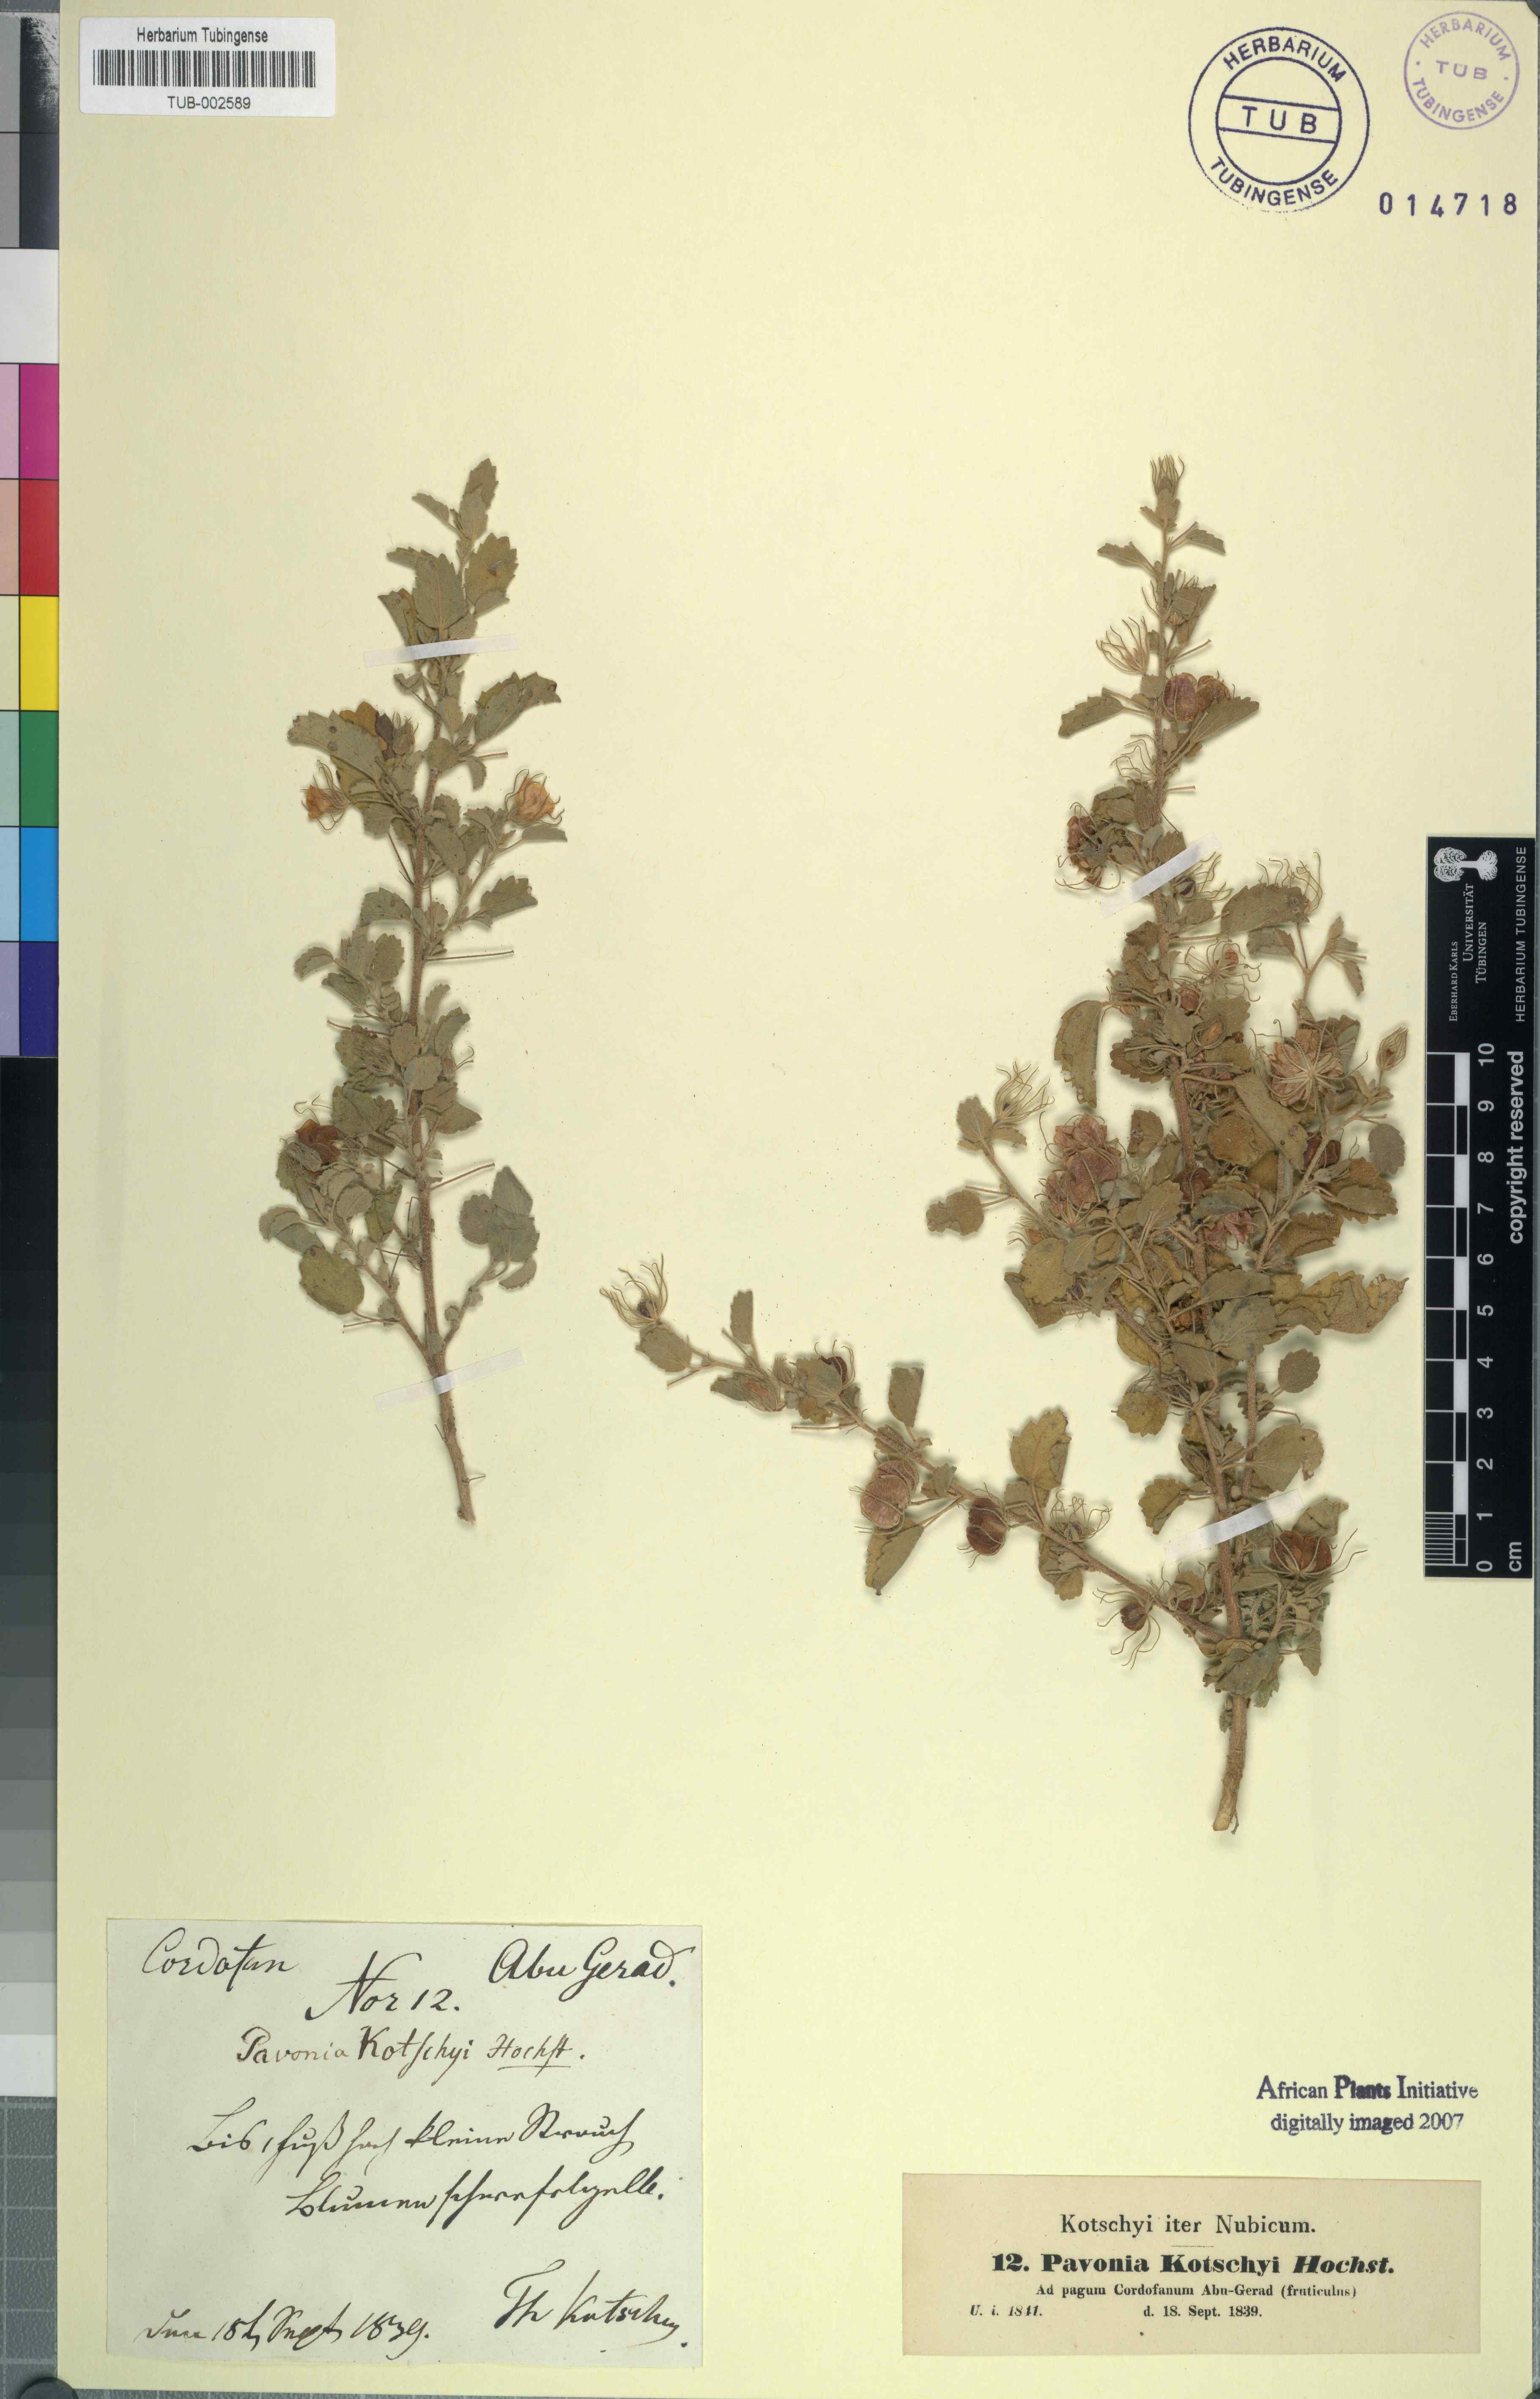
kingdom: Plantae
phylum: Tracheophyta
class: Magnoliopsida
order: Malvales
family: Malvaceae
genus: Pavonia
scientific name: Pavonia kotschyi
